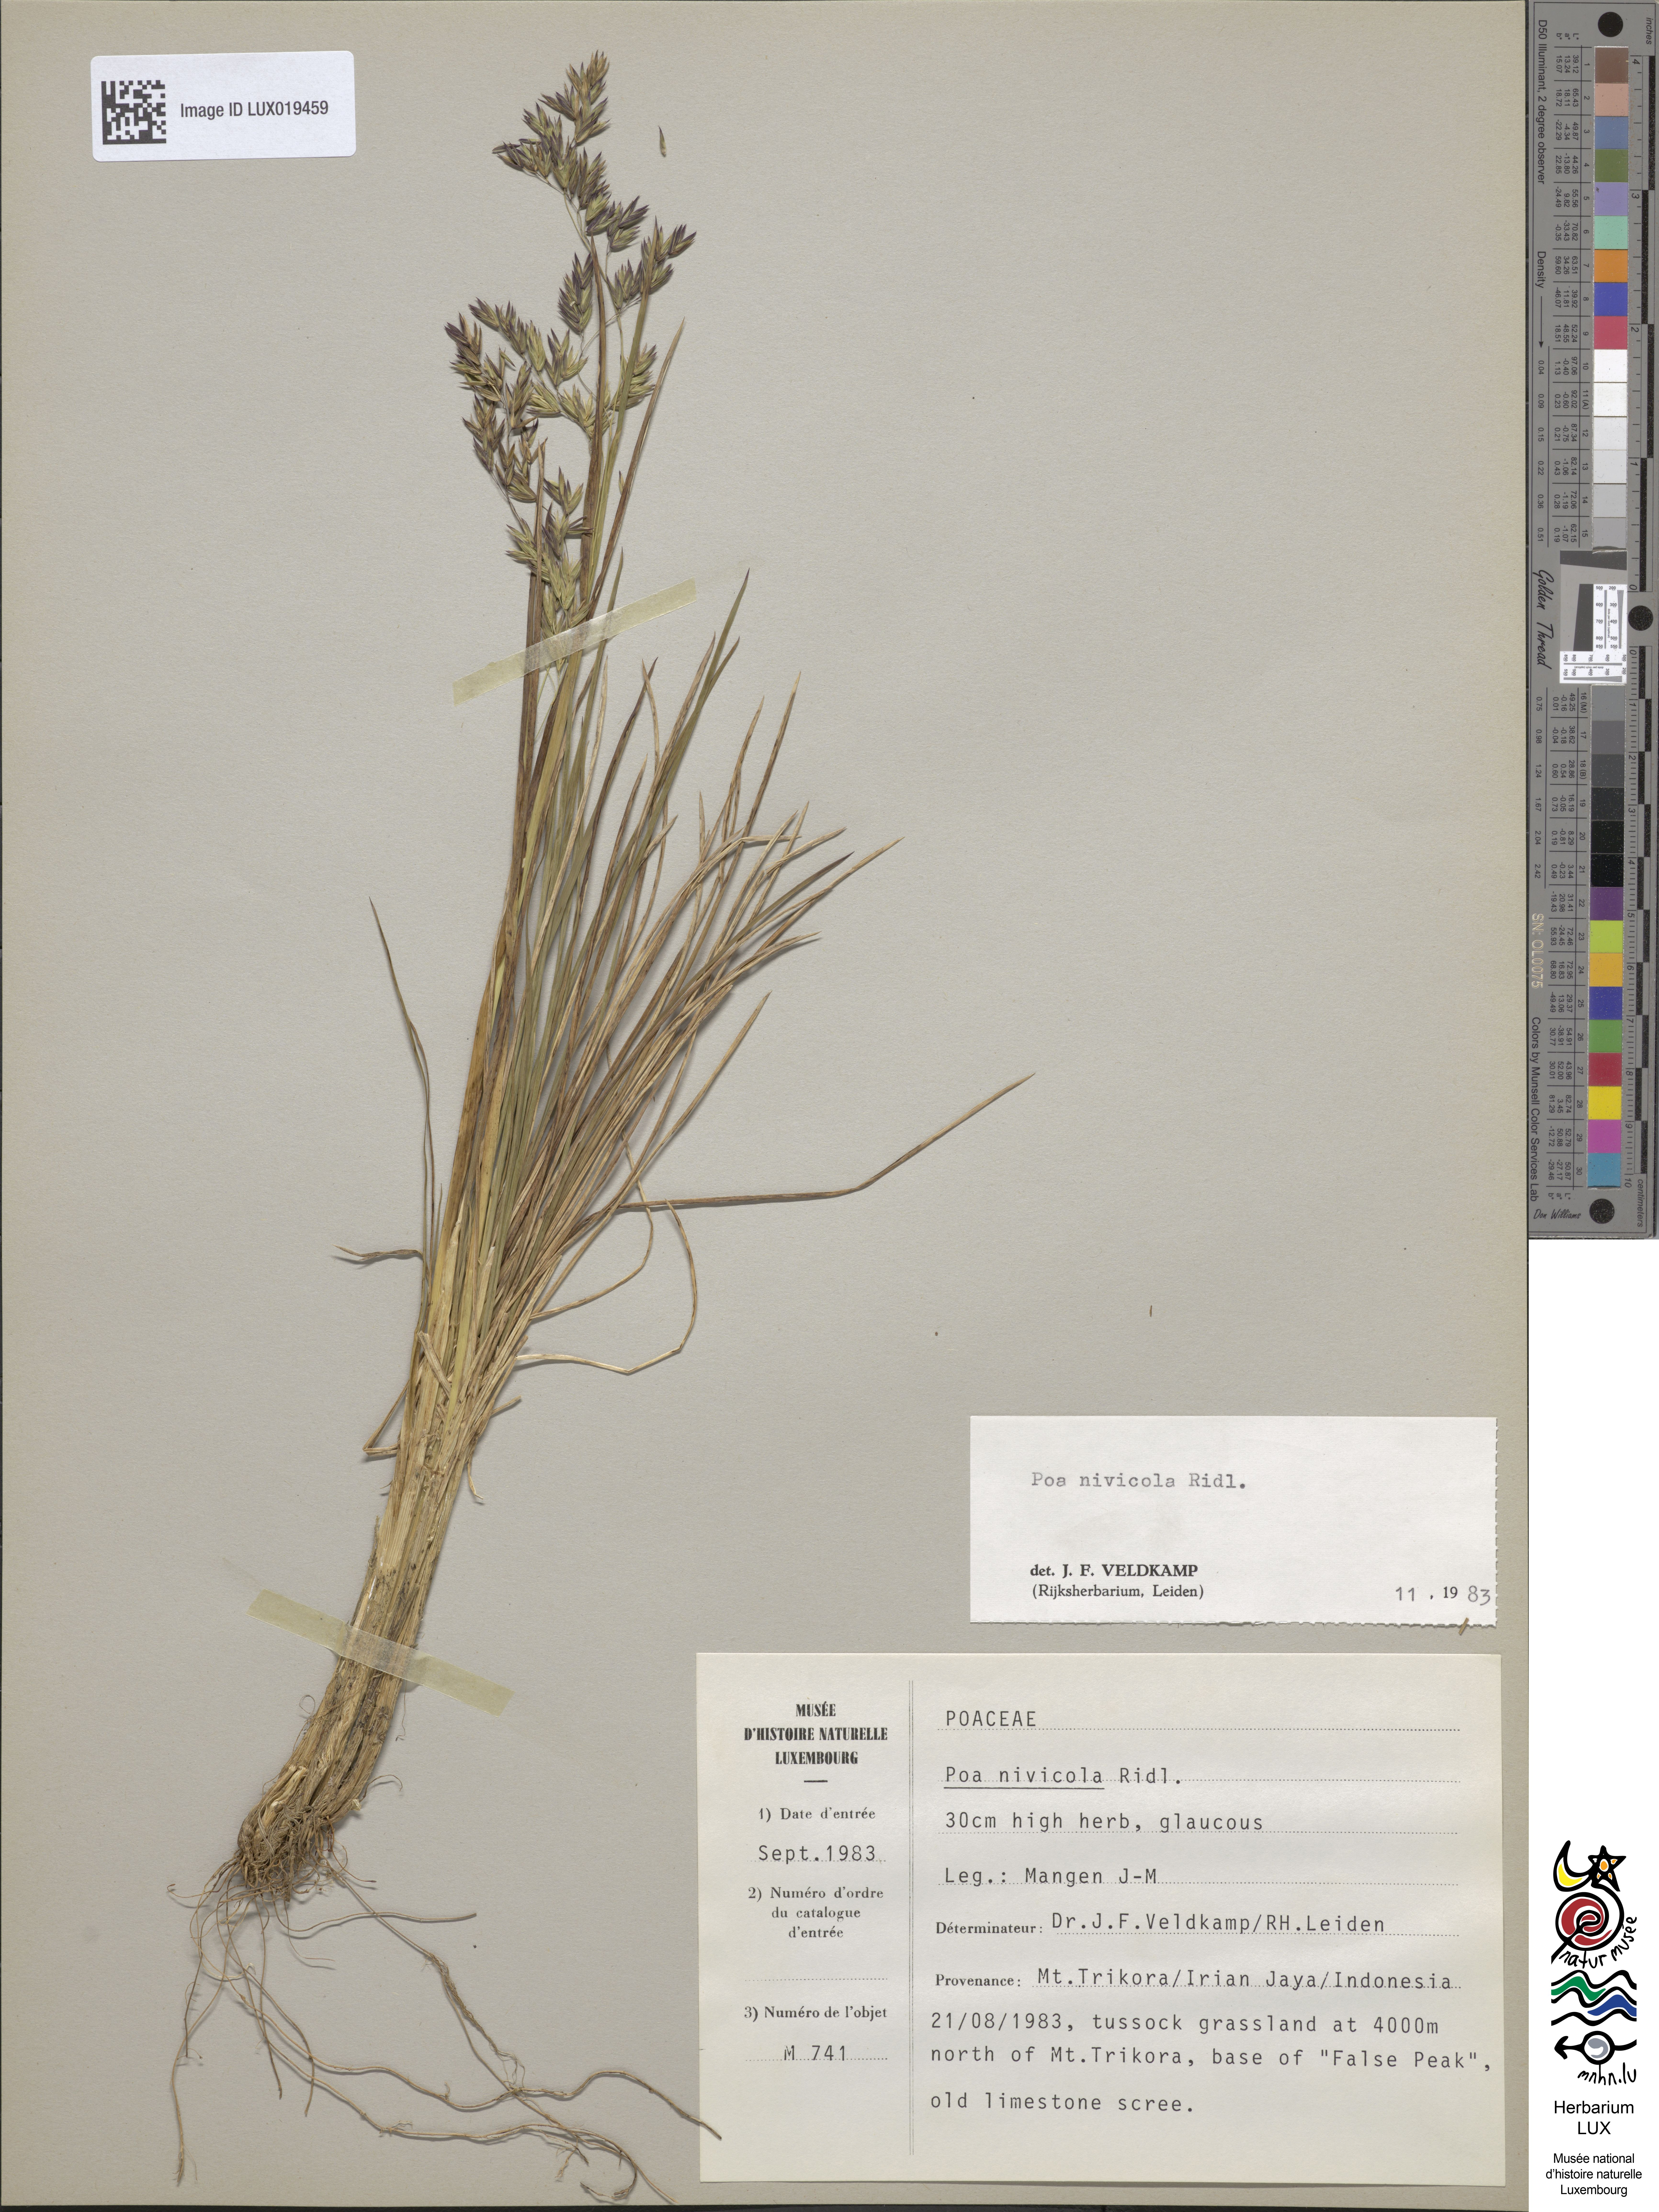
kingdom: Plantae
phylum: Tracheophyta
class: Liliopsida
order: Poales
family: Poaceae
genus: Poa
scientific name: Poa nivicola
